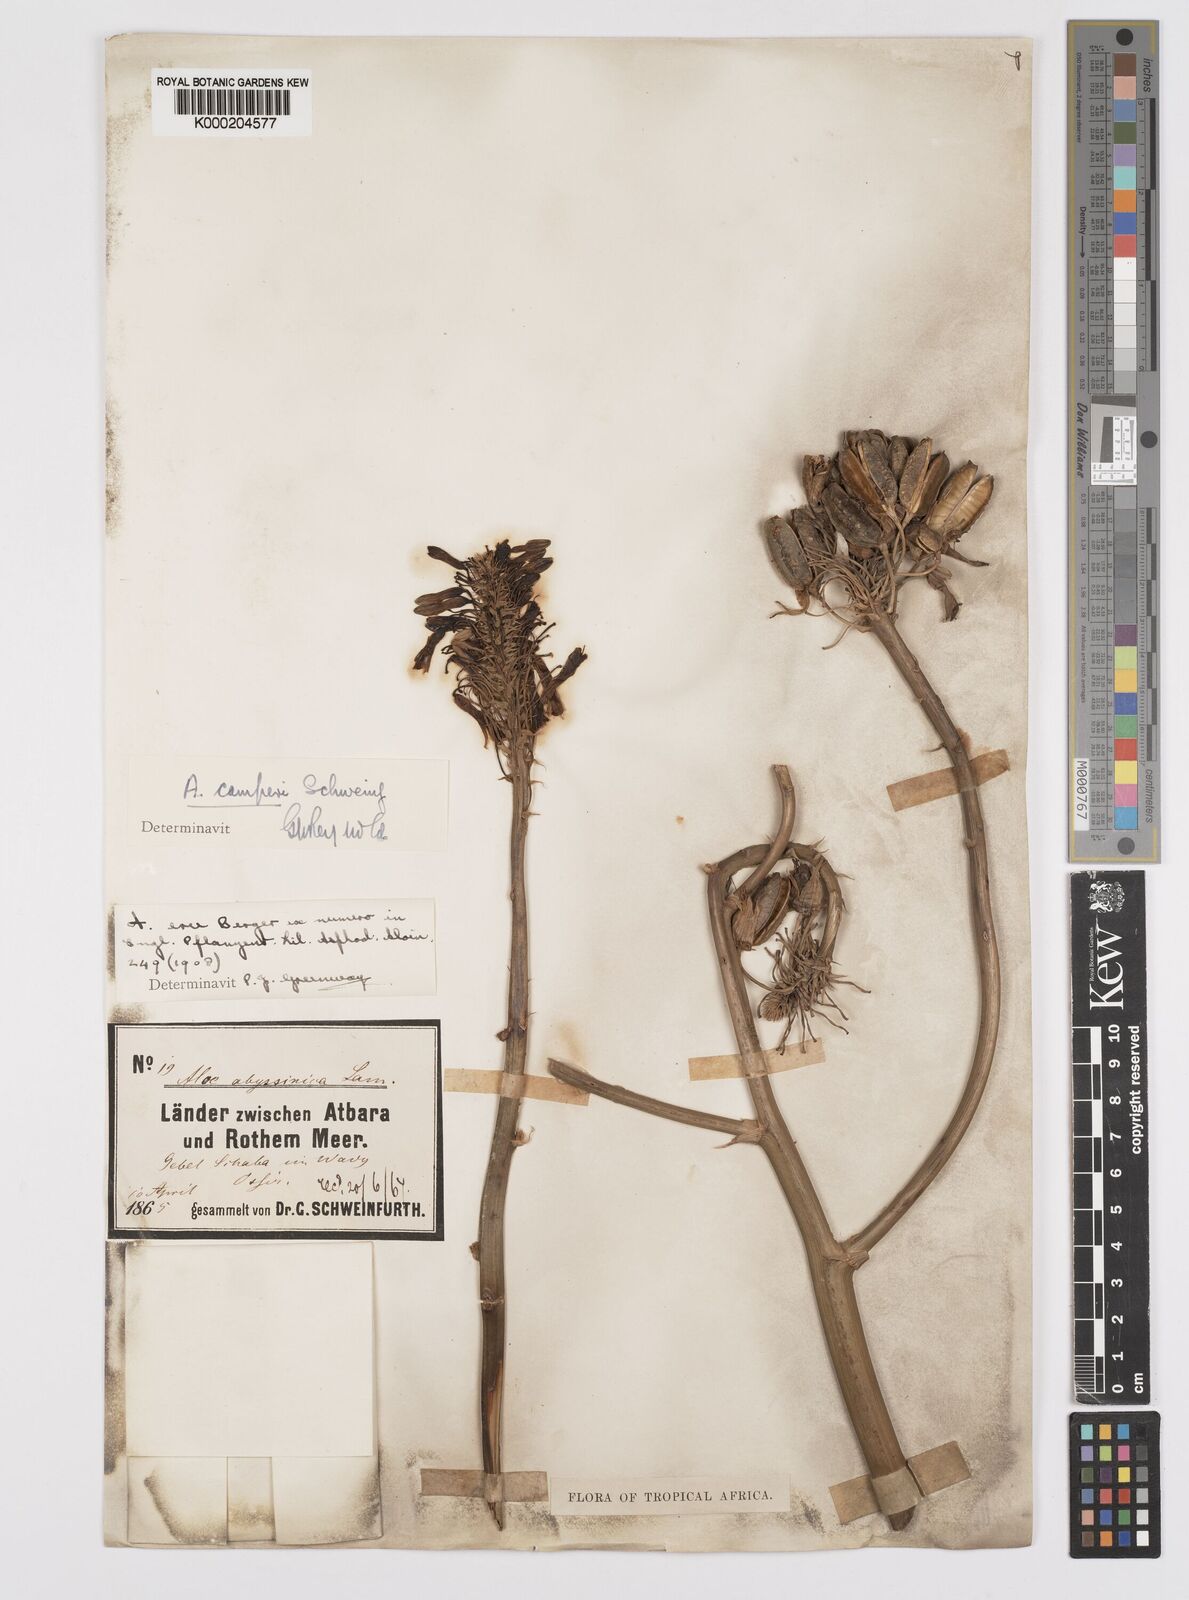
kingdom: Plantae
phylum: Tracheophyta
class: Liliopsida
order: Asparagales
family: Asphodelaceae
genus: Aloe
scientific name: Aloe camperi
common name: Camper's aloe
